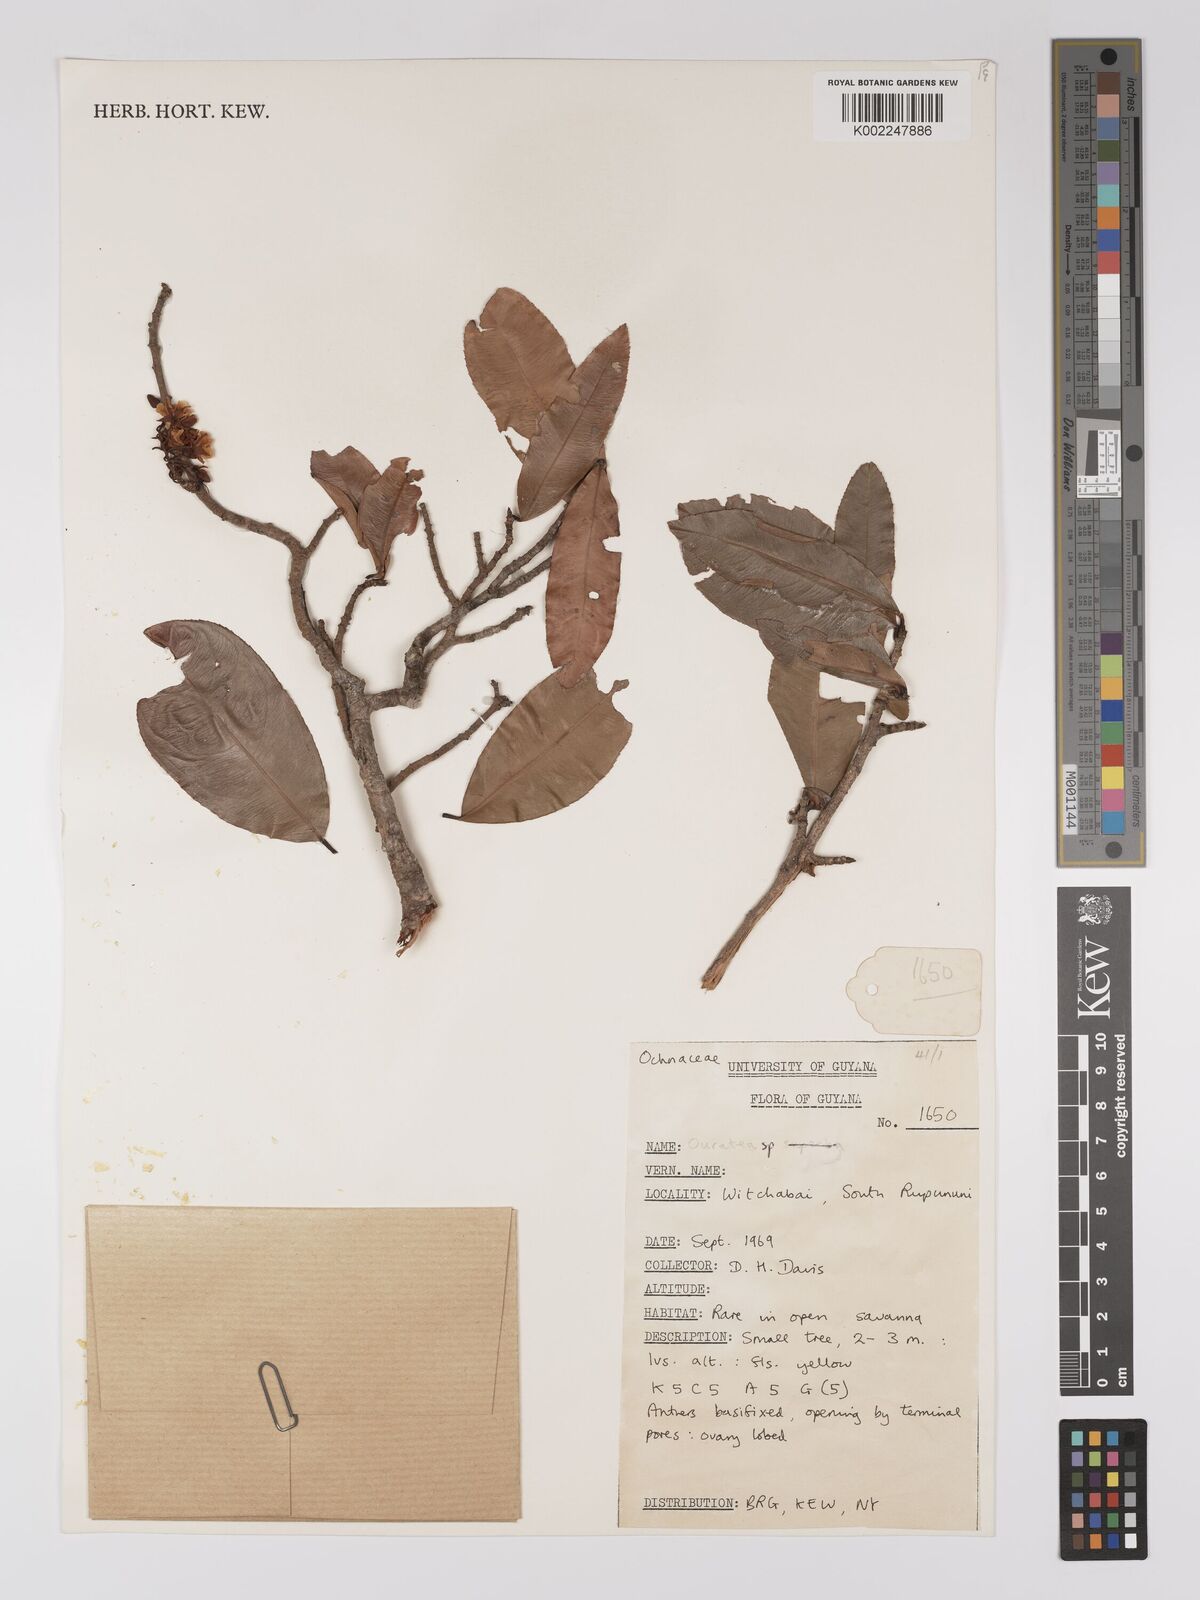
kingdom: Plantae
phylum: Tracheophyta
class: Magnoliopsida
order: Malpighiales
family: Ochnaceae
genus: Ouratea
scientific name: Ouratea longifolia
